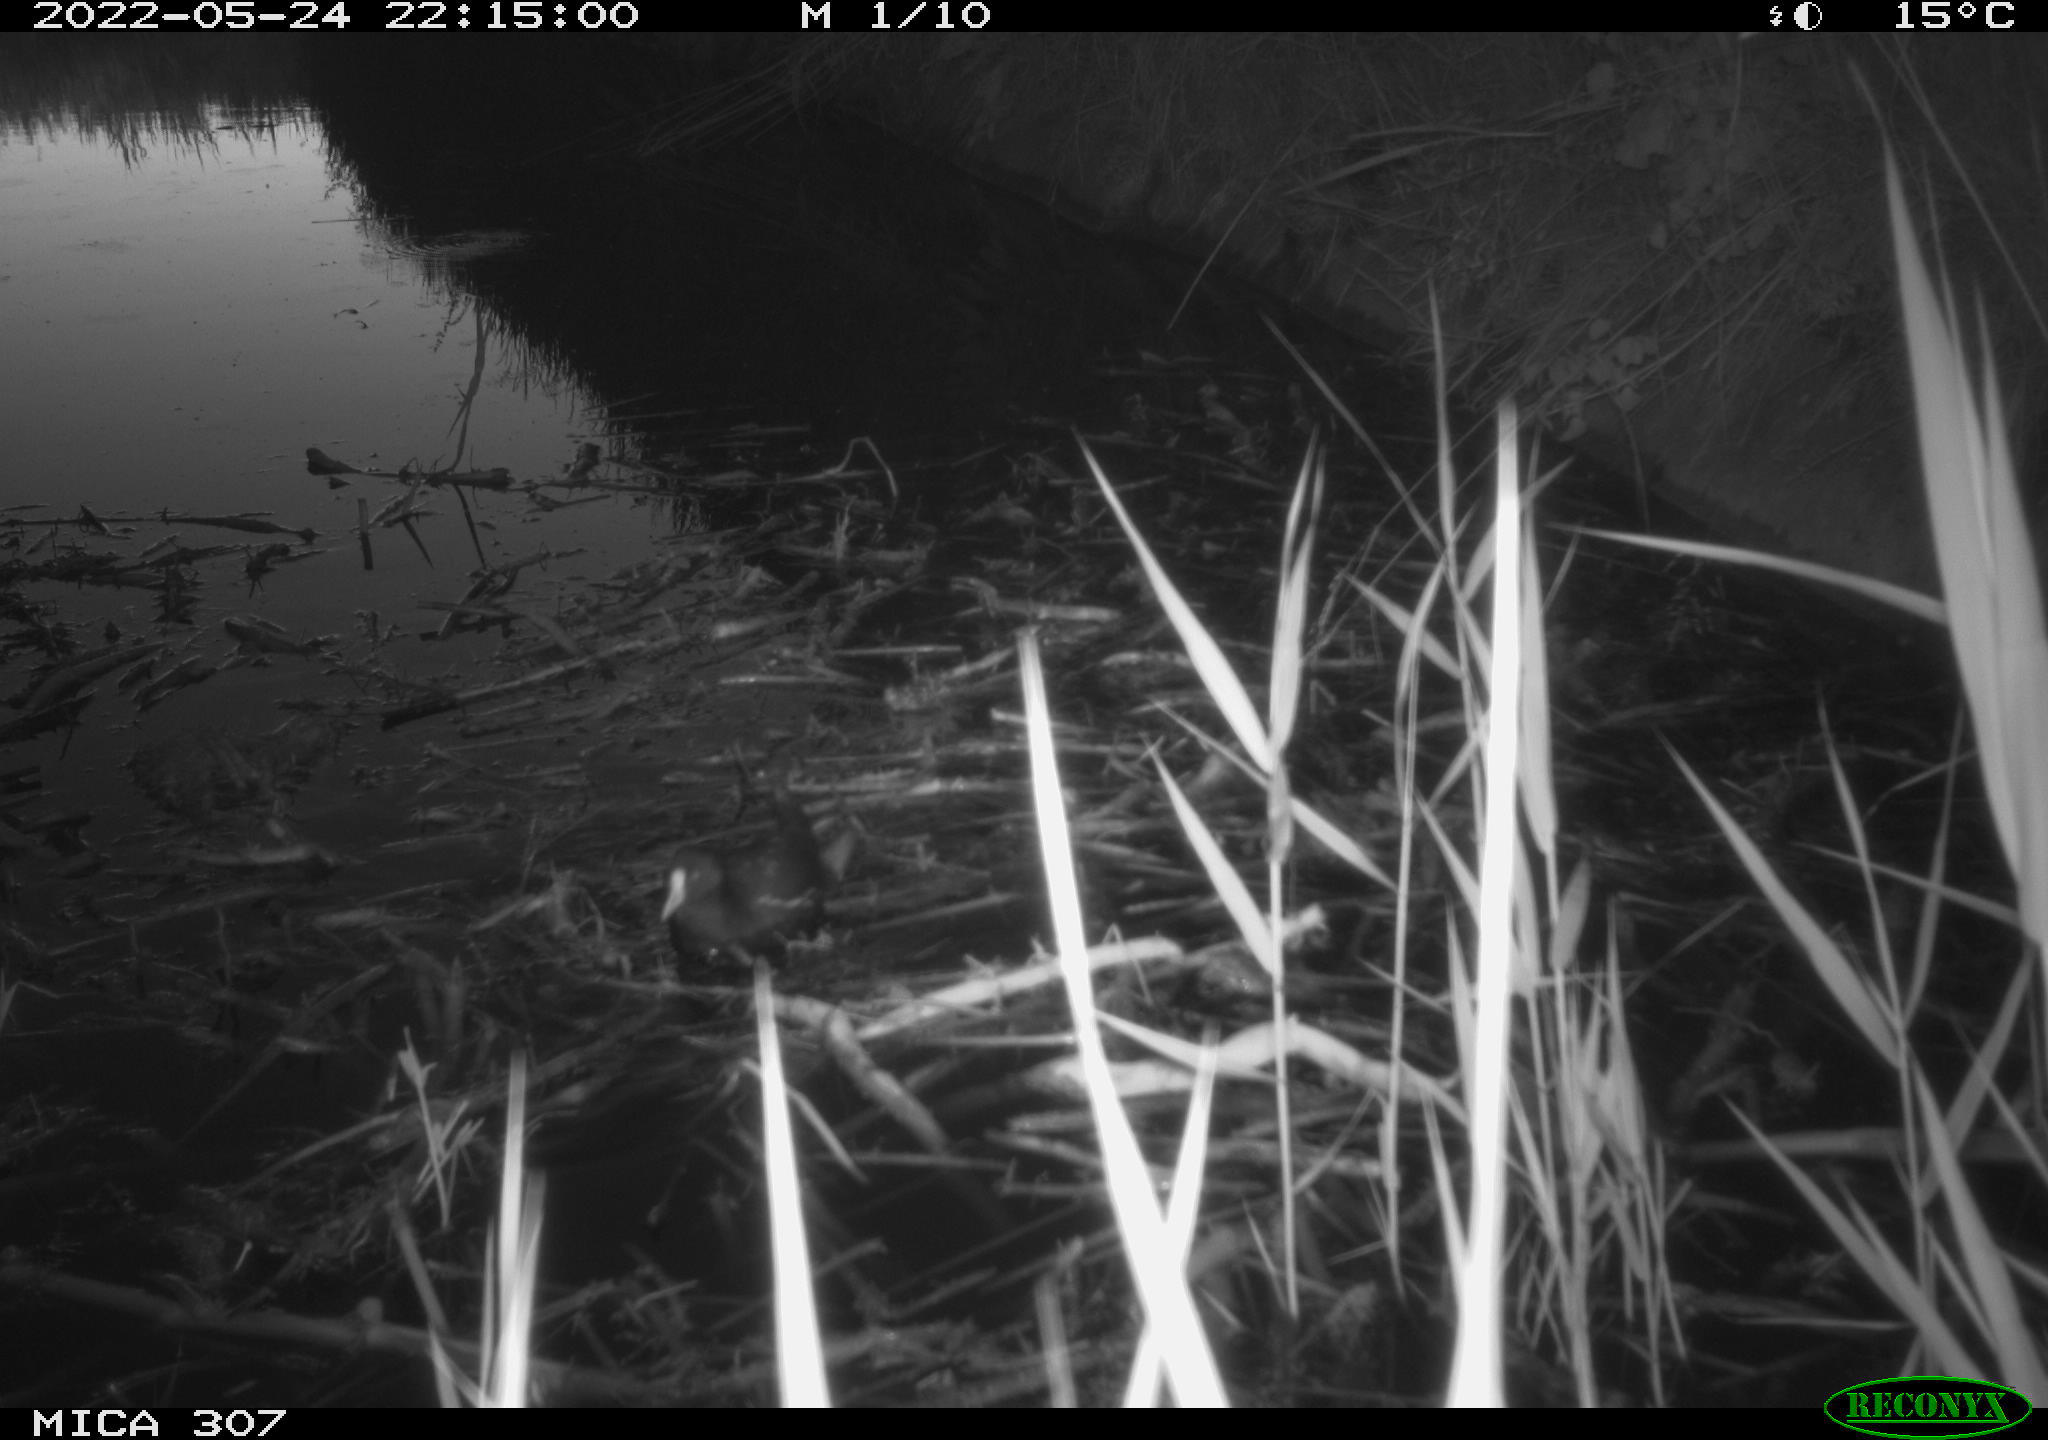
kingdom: Animalia
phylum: Chordata
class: Aves
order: Gruiformes
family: Rallidae
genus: Gallinula
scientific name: Gallinula chloropus
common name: Common moorhen
